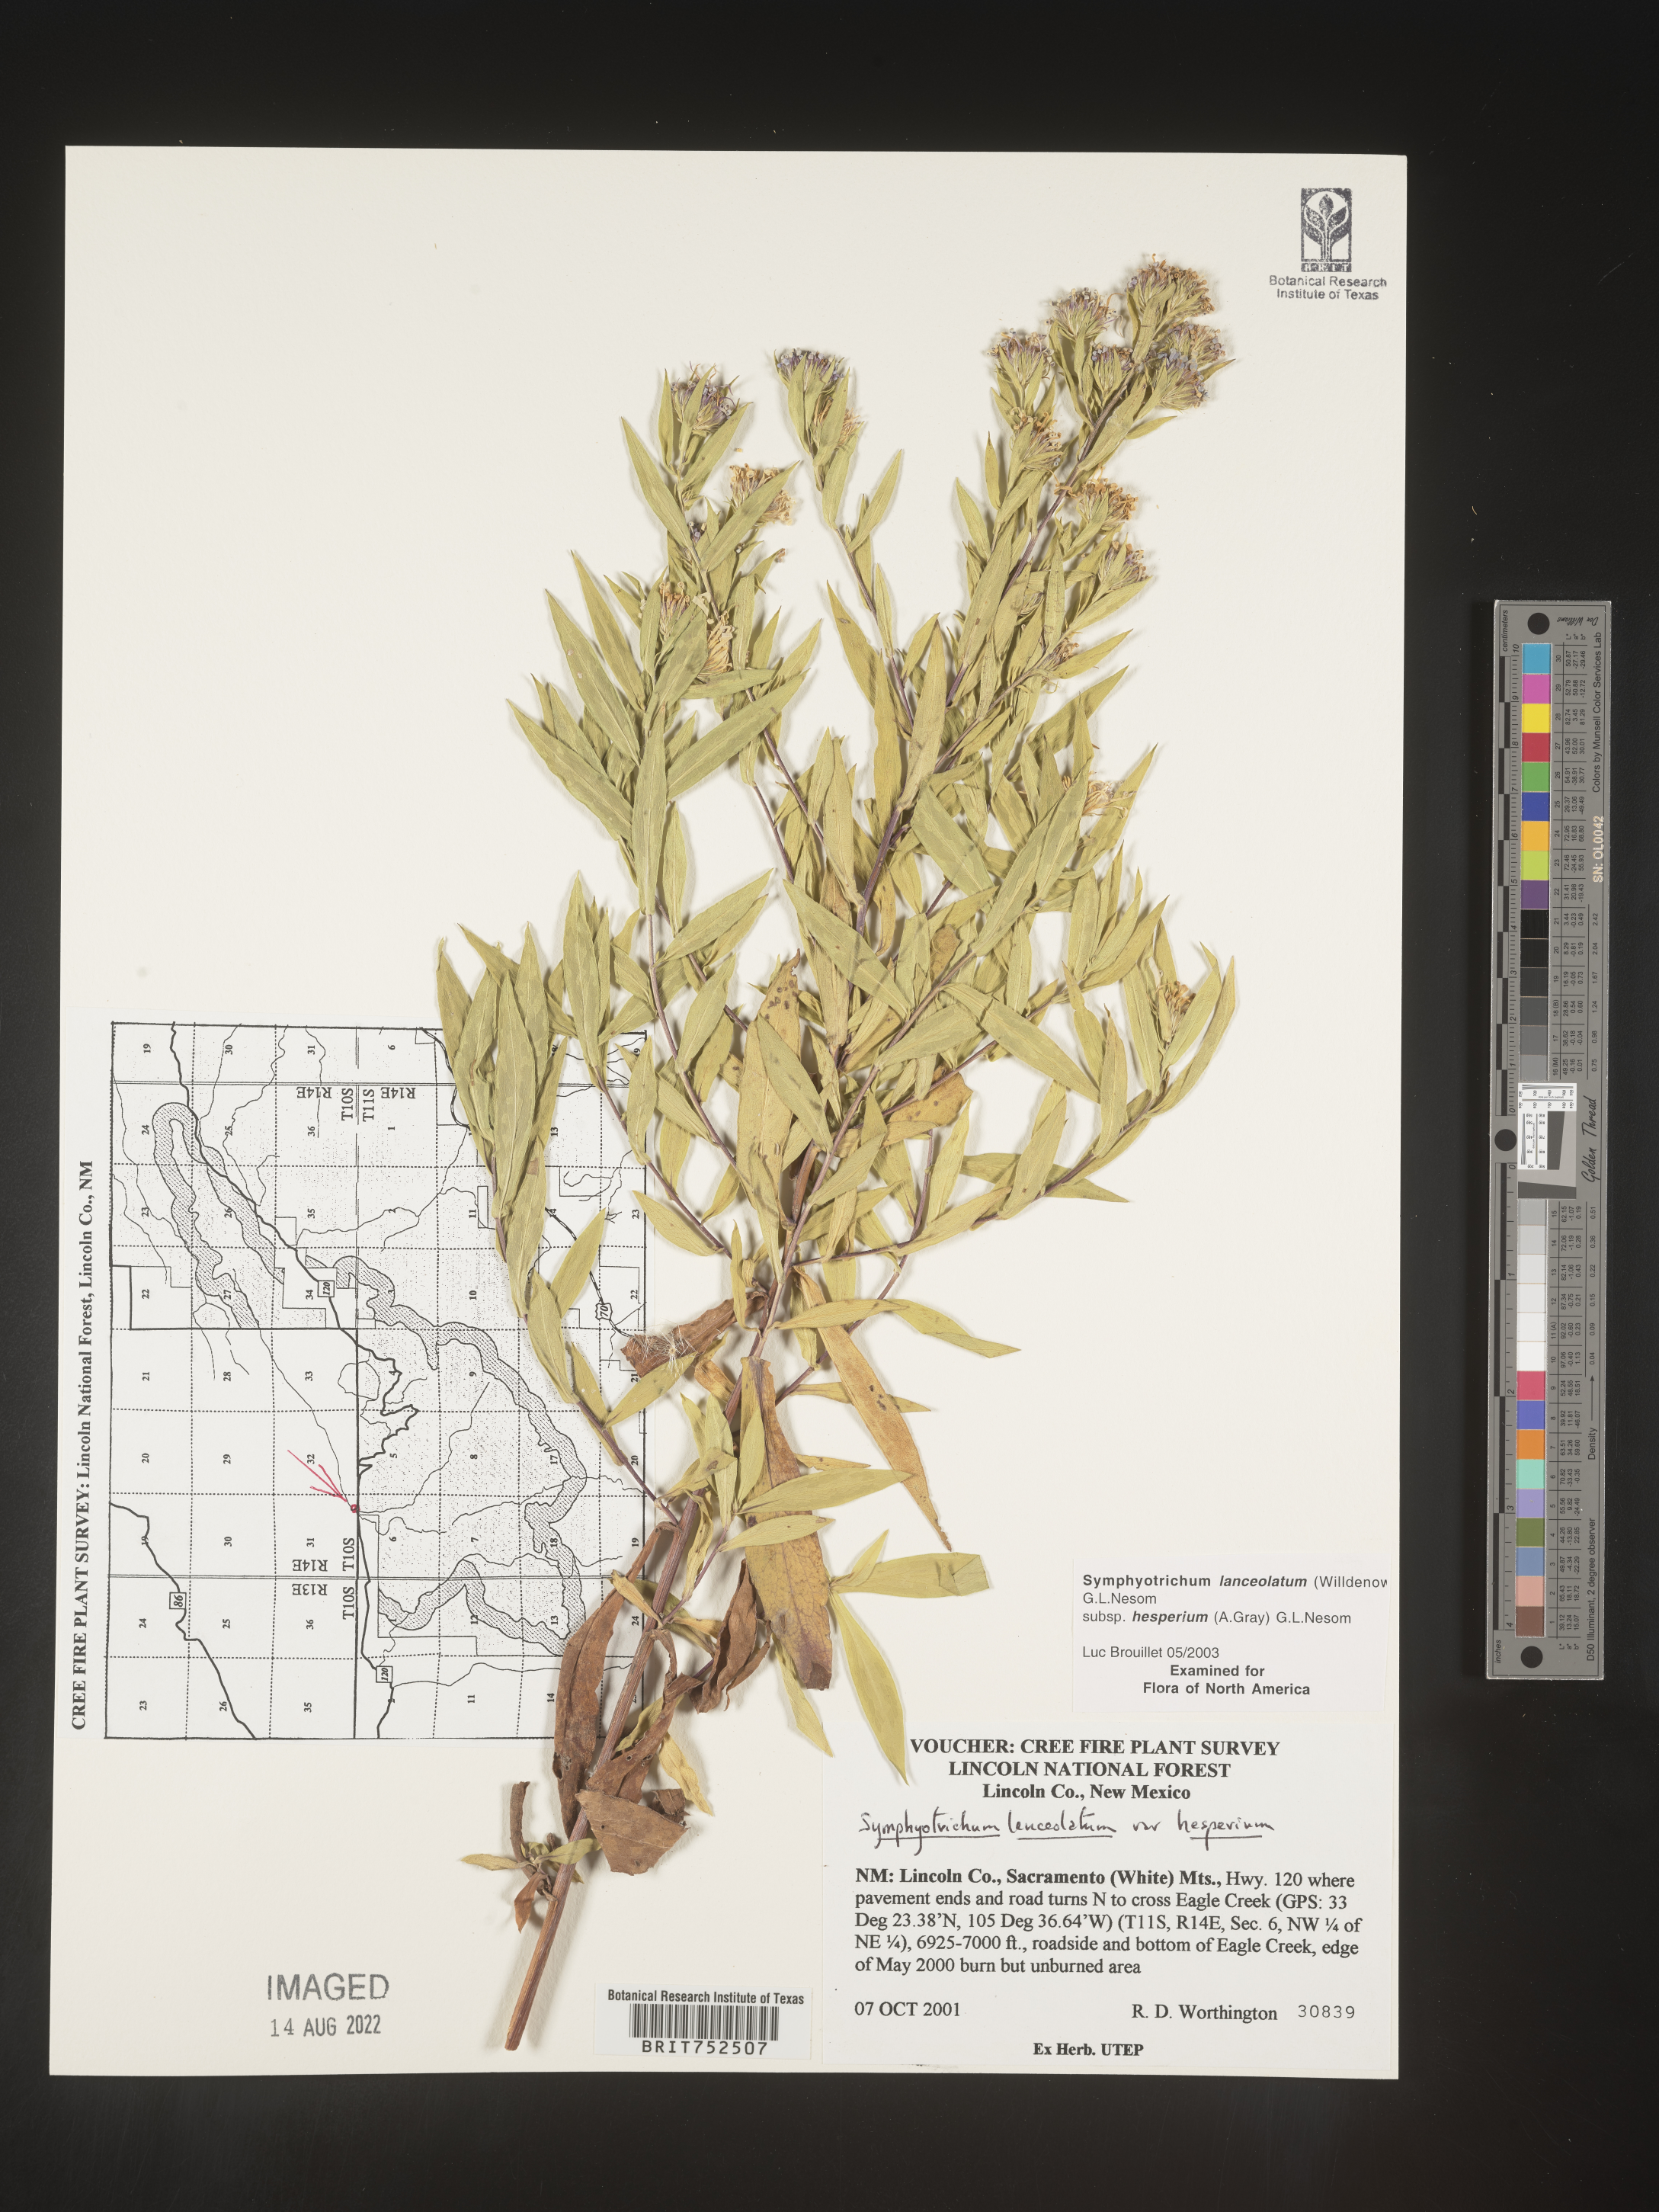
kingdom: Plantae
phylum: Tracheophyta
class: Magnoliopsida
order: Asterales
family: Asteraceae
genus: Symphyotrichum
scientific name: Symphyotrichum lanceolatum
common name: Panicled aster
